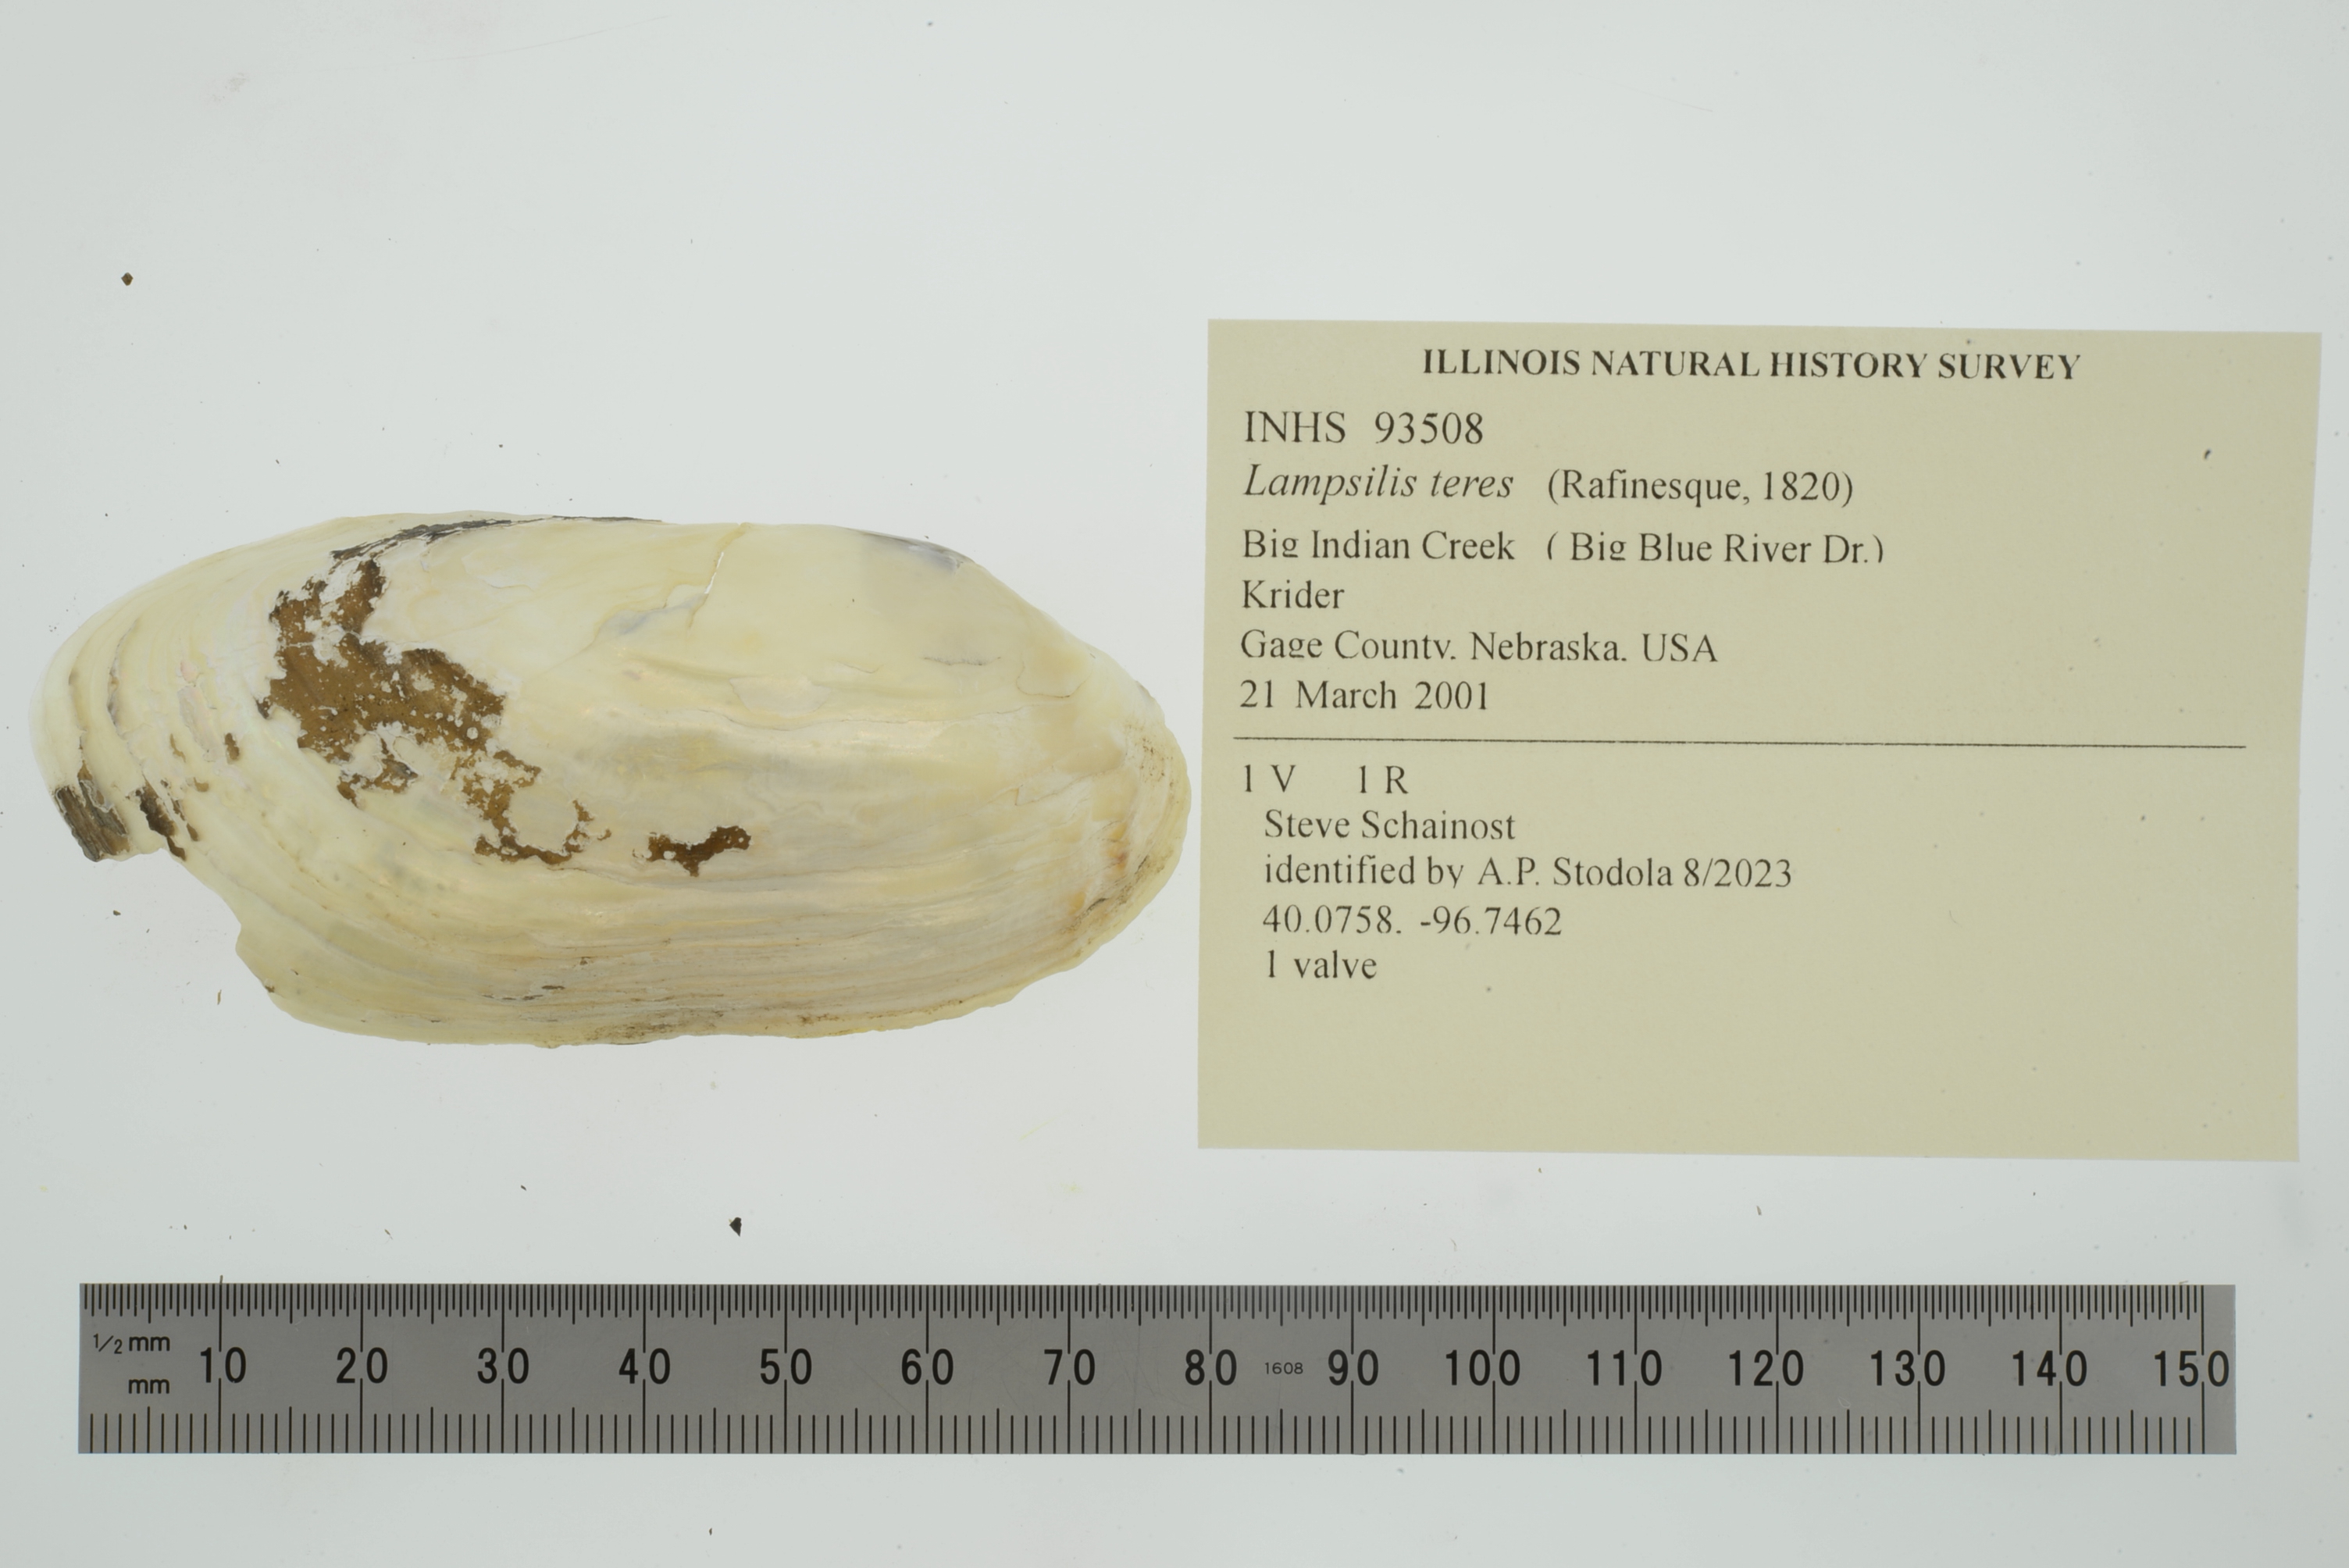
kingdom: Animalia
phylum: Mollusca
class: Bivalvia
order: Unionida
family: Unionidae
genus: Lampsilis
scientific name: Lampsilis teres
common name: Yellow sandshell
